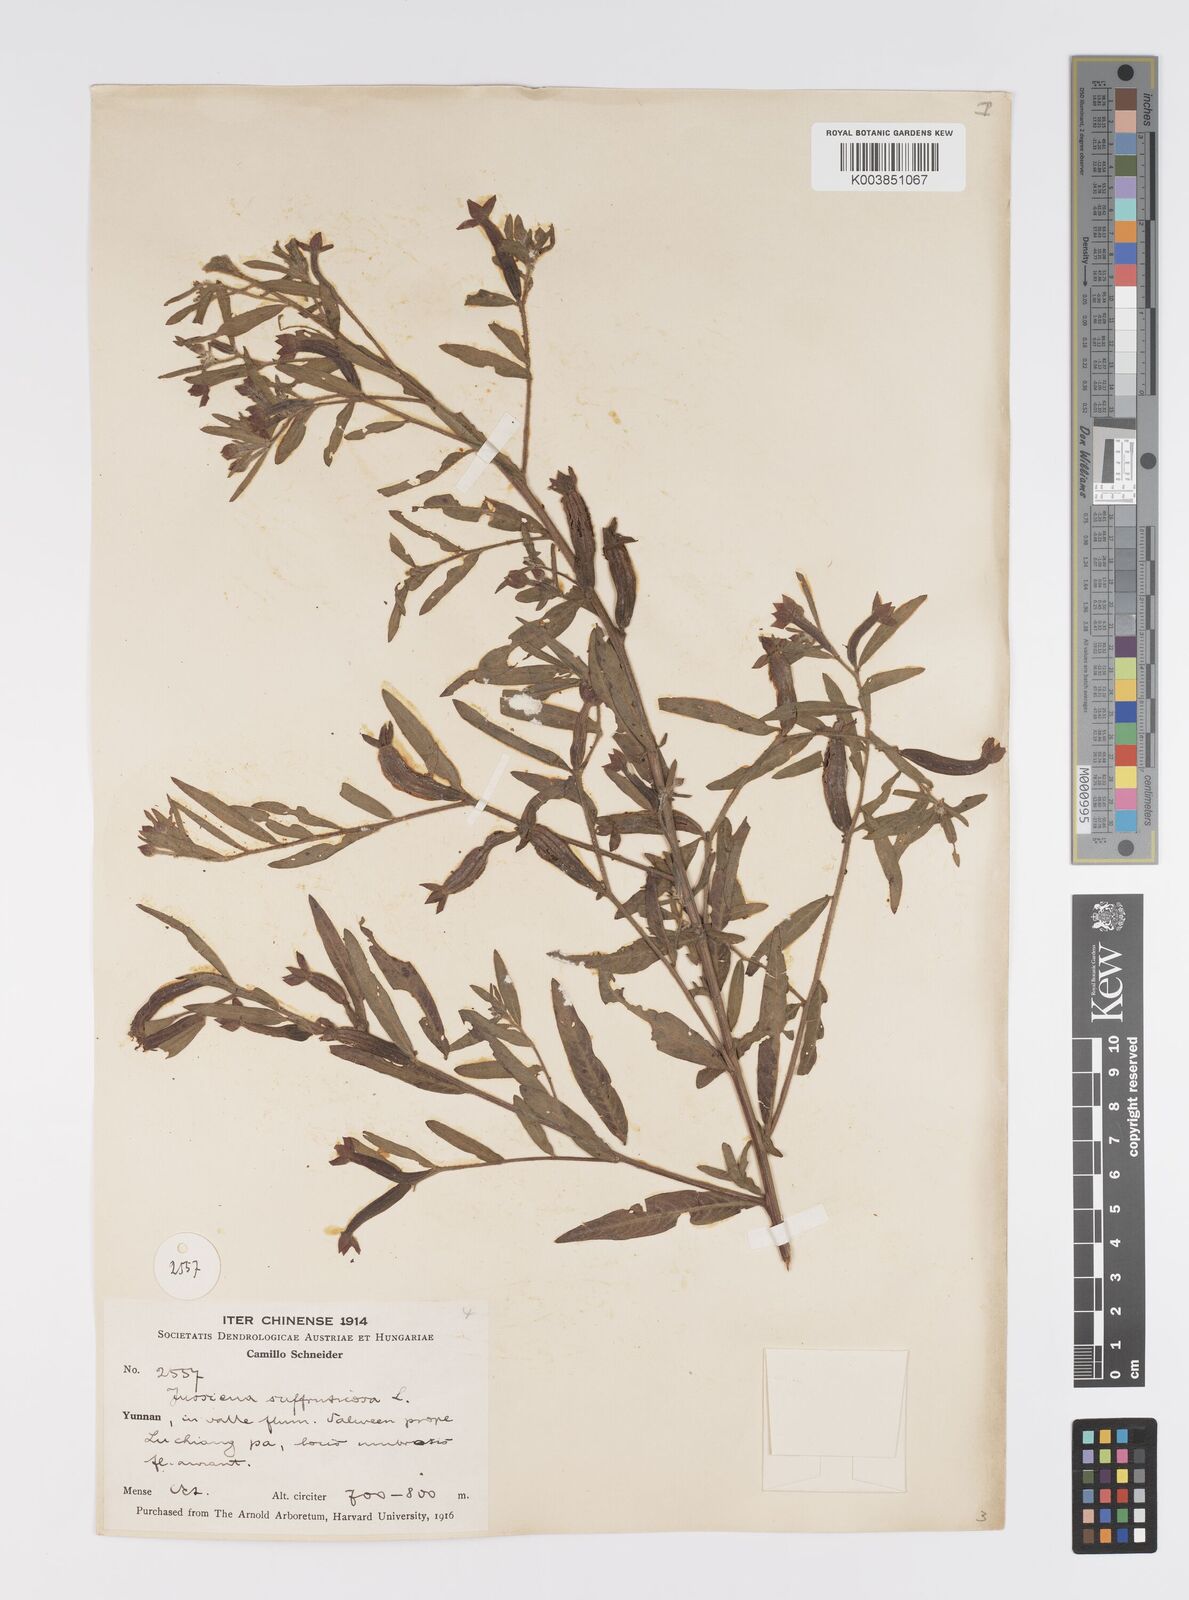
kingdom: Plantae
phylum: Tracheophyta
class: Magnoliopsida
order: Myrtales
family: Onagraceae
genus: Ludwigia
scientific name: Ludwigia octovalvis
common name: Water-primrose
